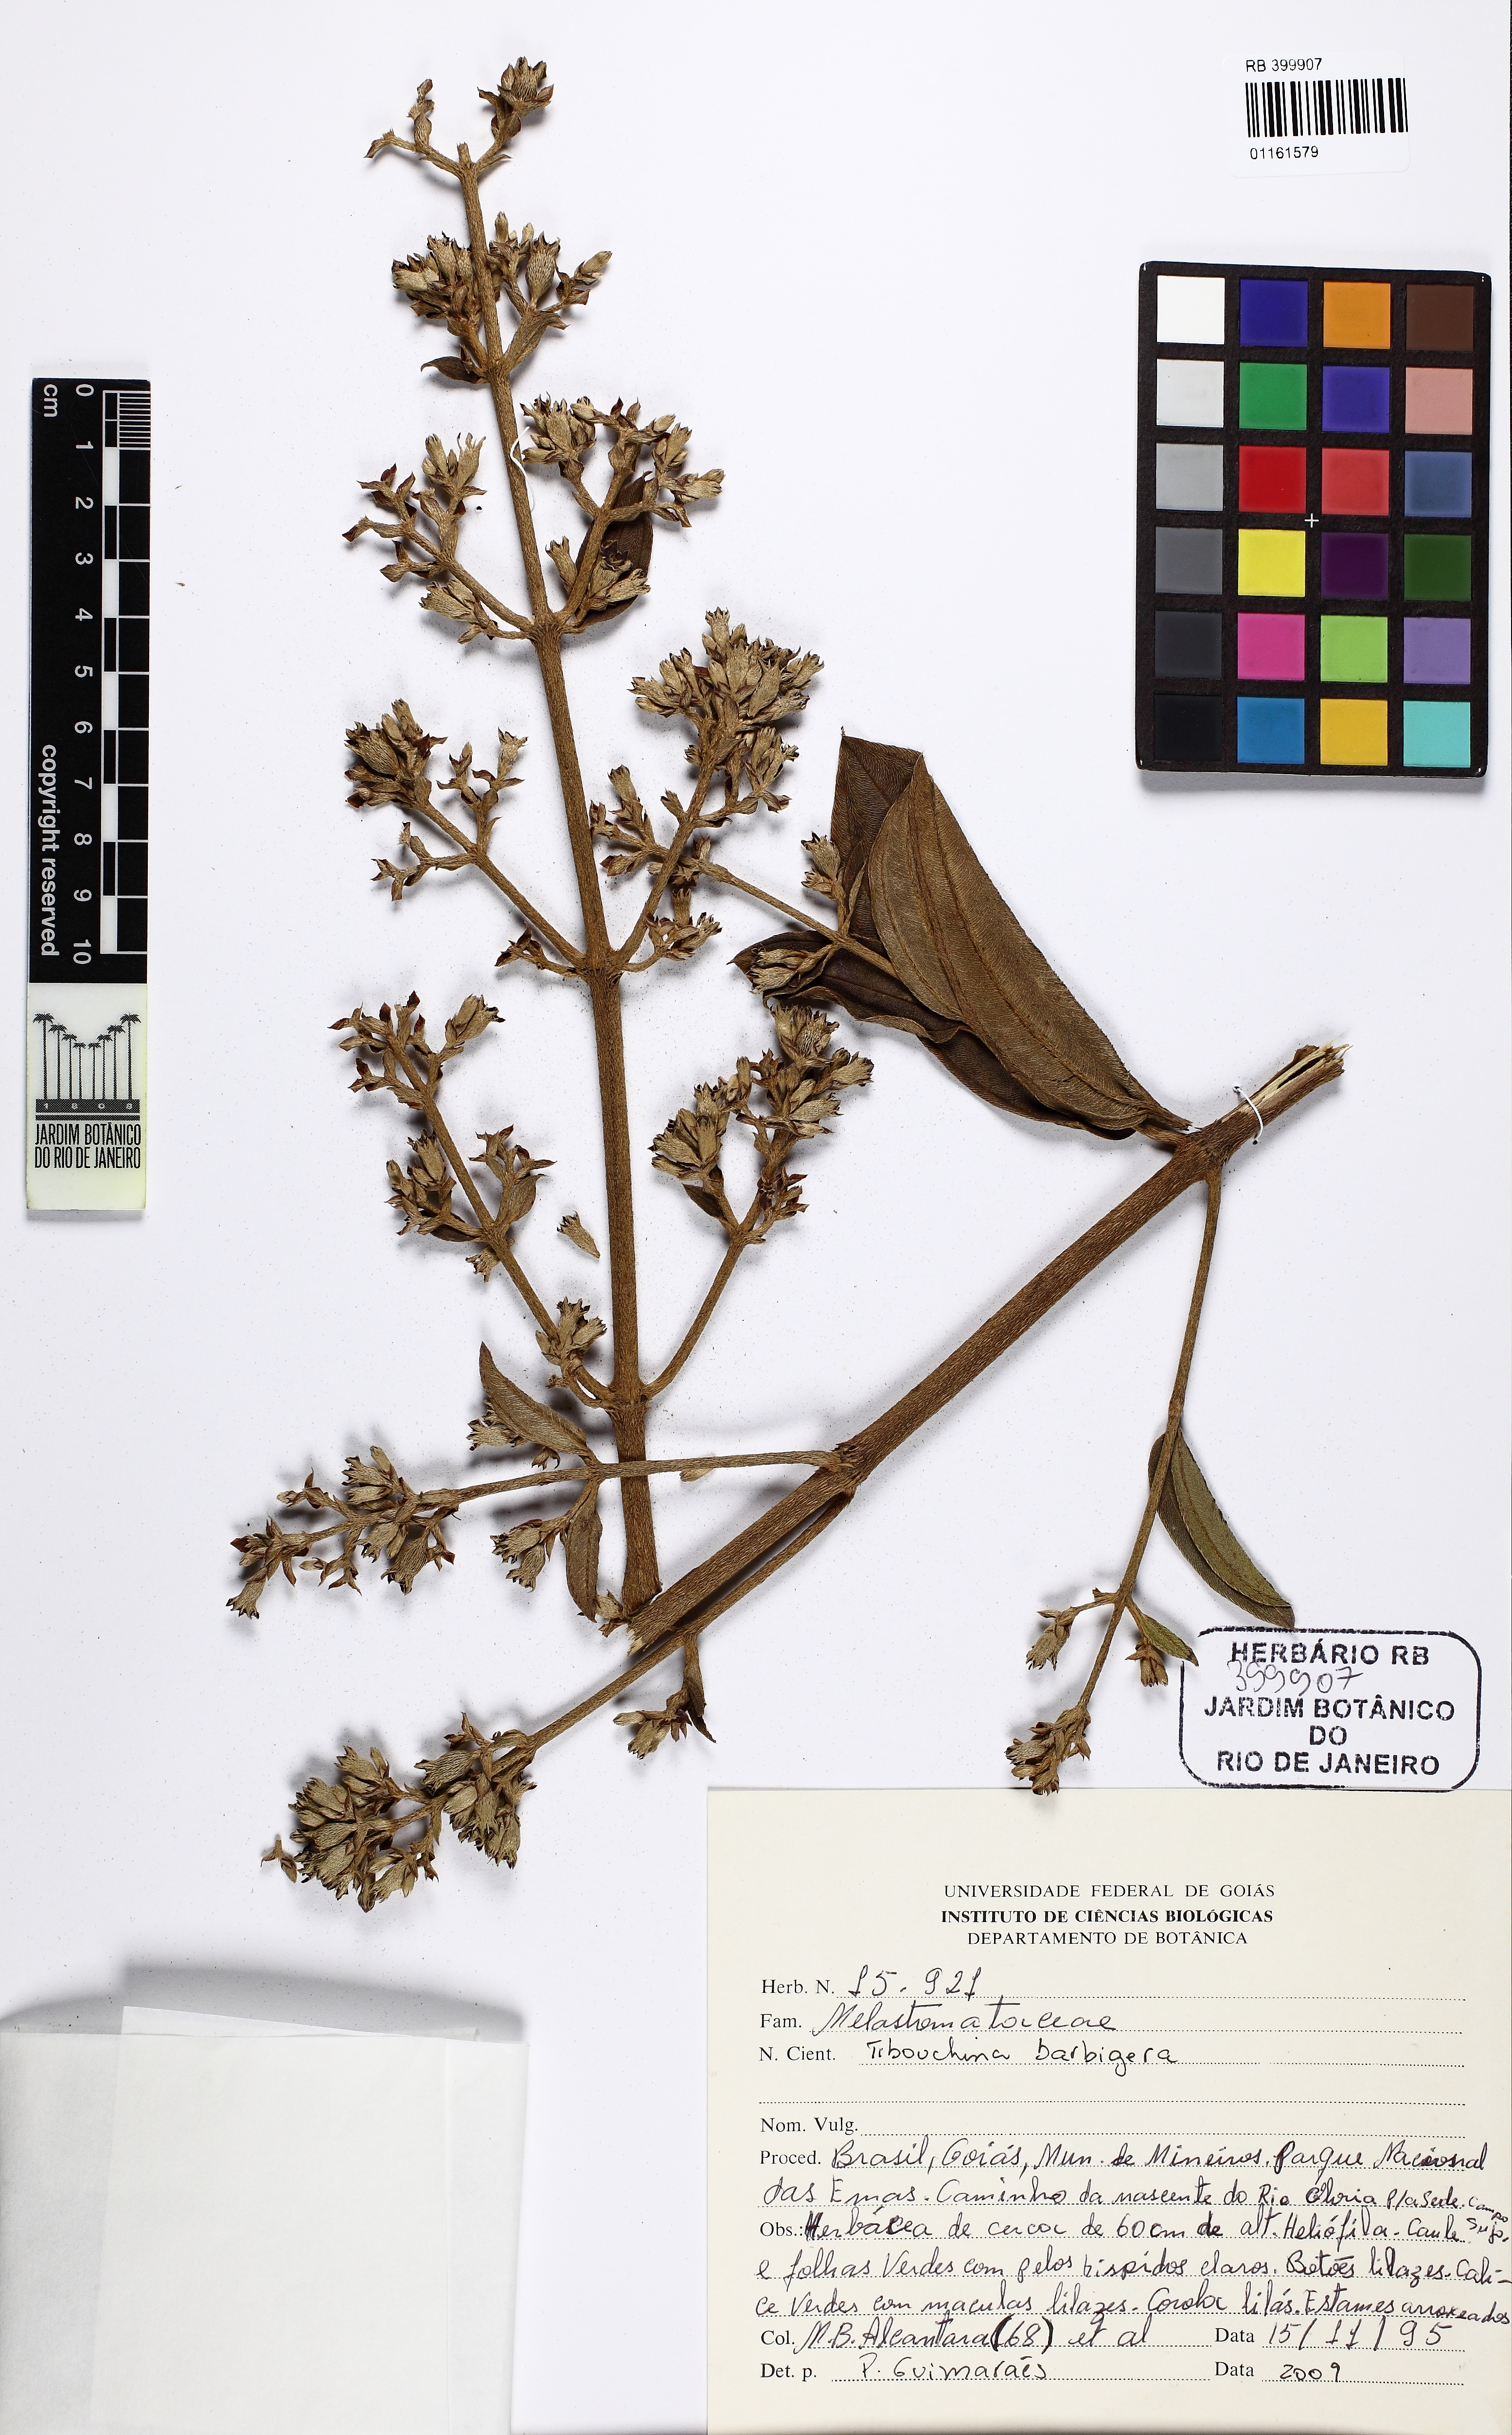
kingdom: Plantae
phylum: Tracheophyta
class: Magnoliopsida
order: Myrtales
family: Melastomataceae
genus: Pleroma
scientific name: Pleroma barbigerum
